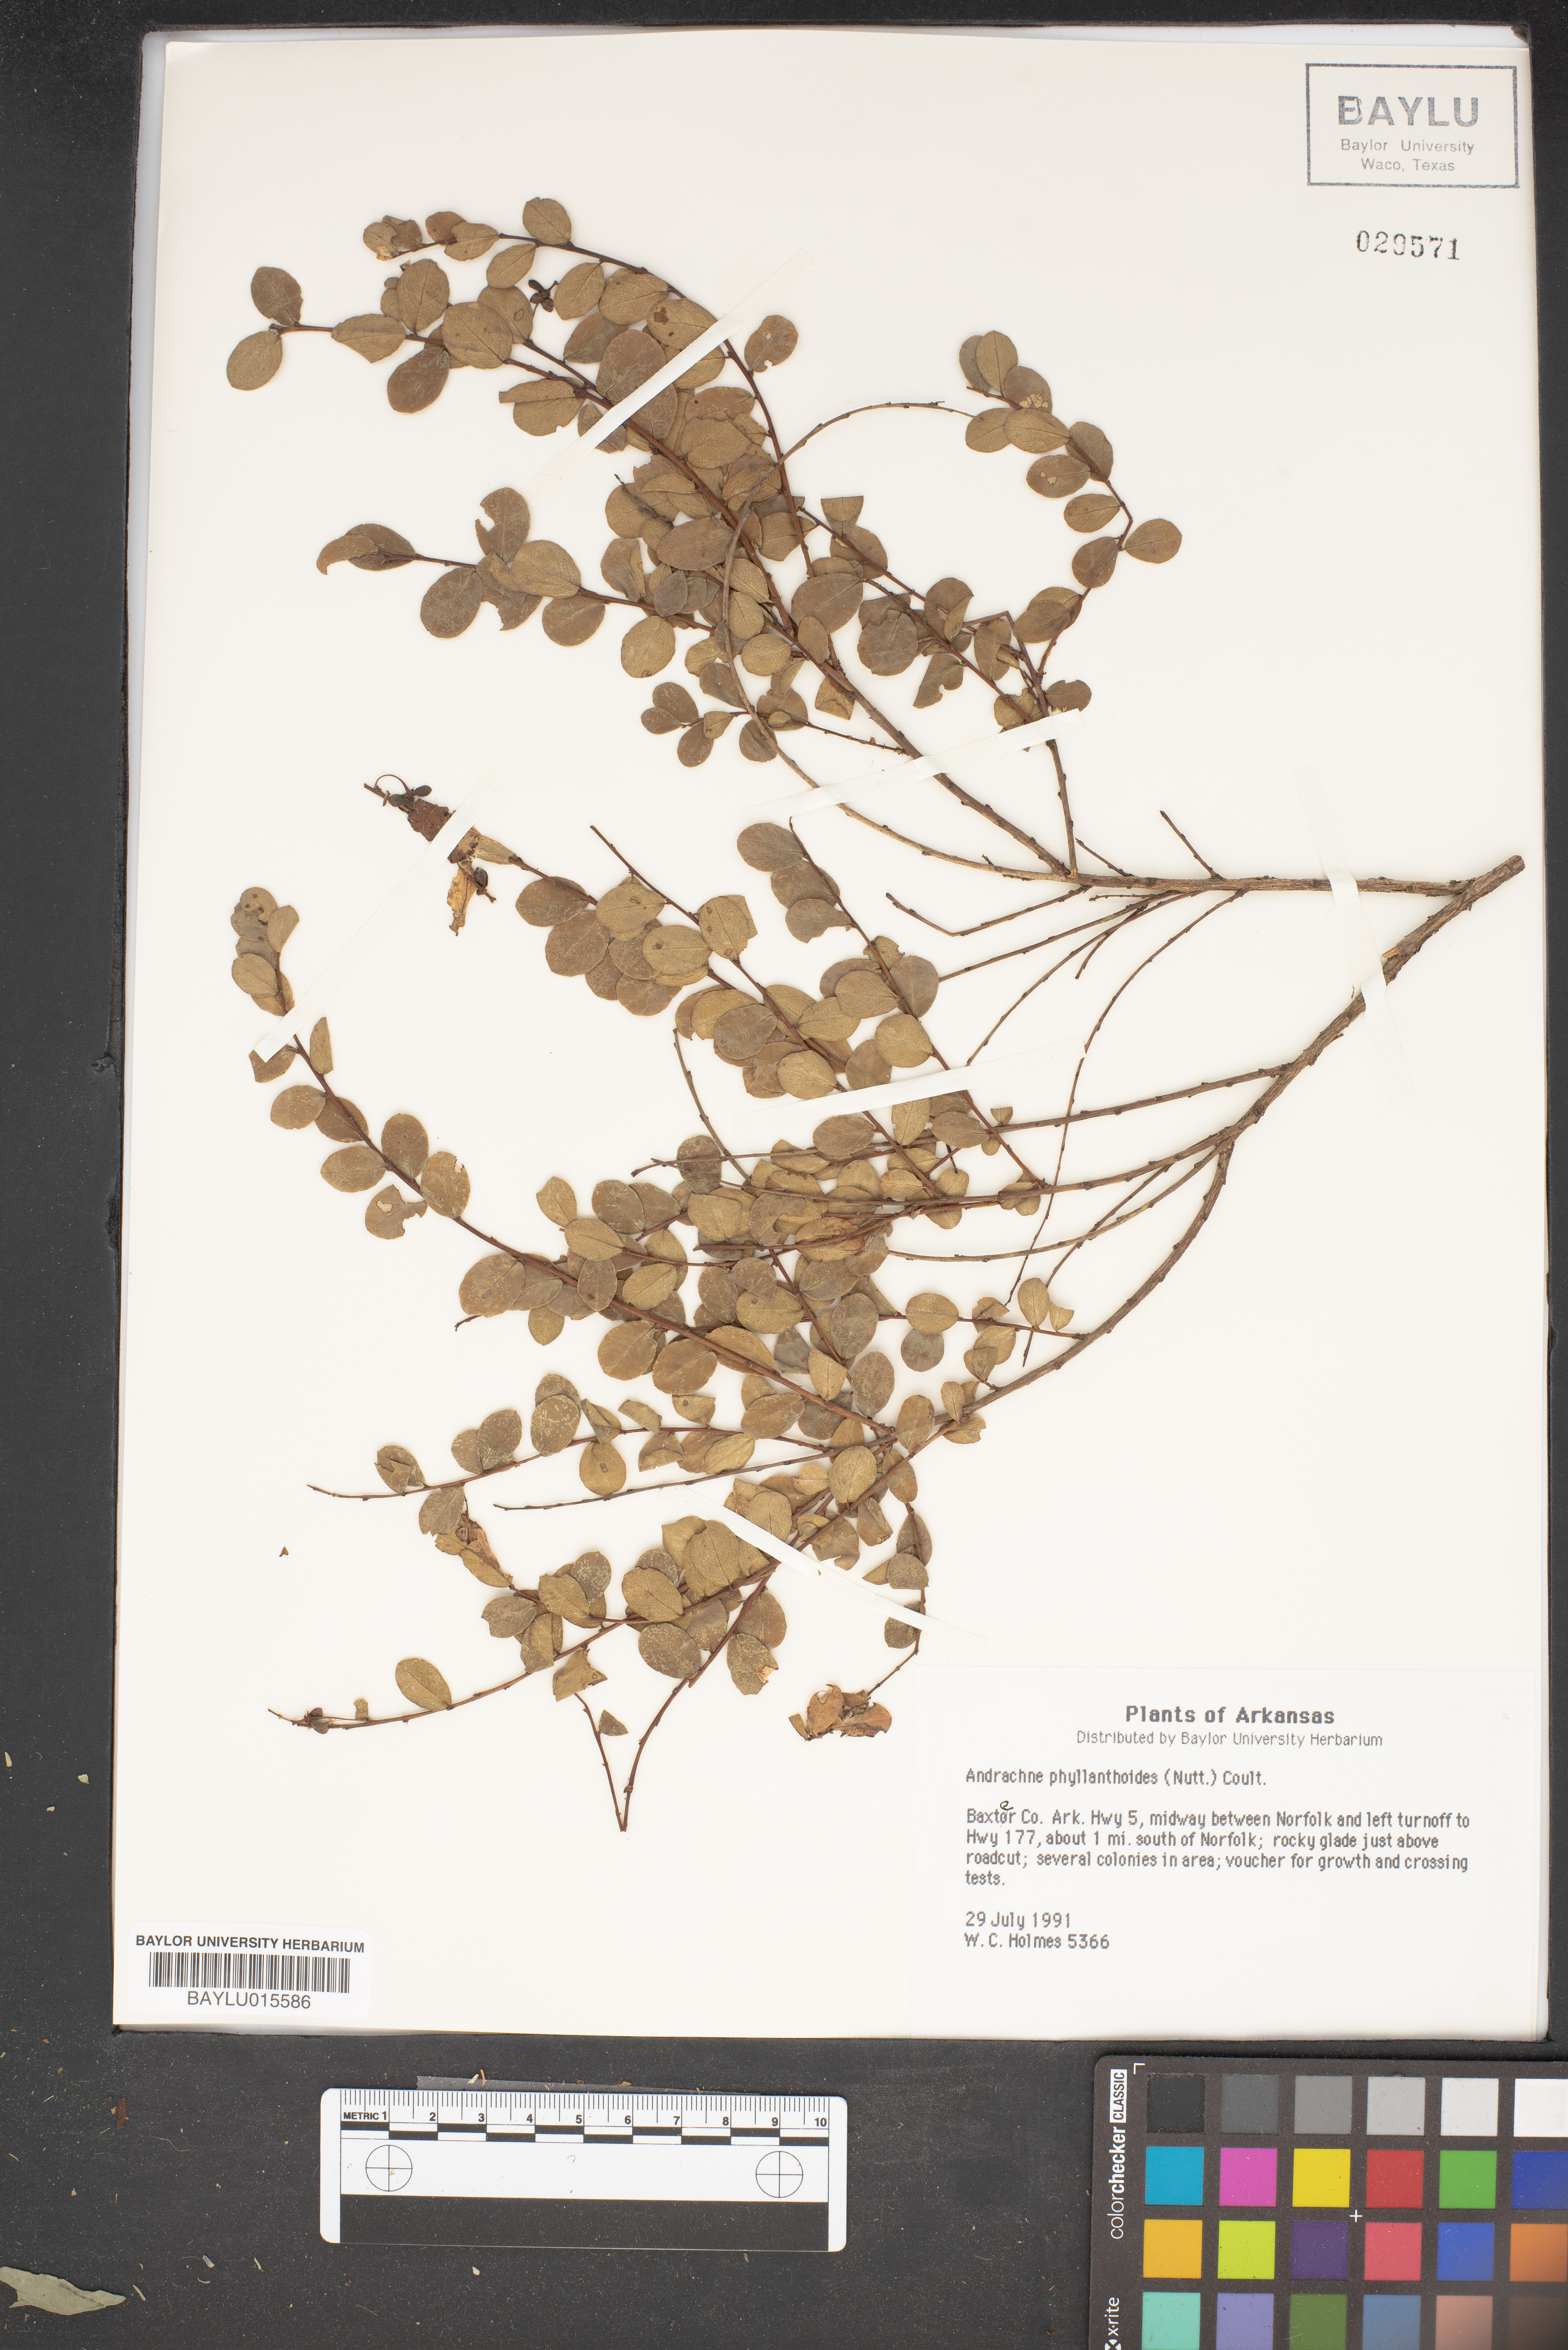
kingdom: Plantae
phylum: Tracheophyta
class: Magnoliopsida
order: Malpighiales
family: Phyllanthaceae
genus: Phyllanthopsis
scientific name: Phyllanthopsis phyllanthoides
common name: Missouri maidenbush
